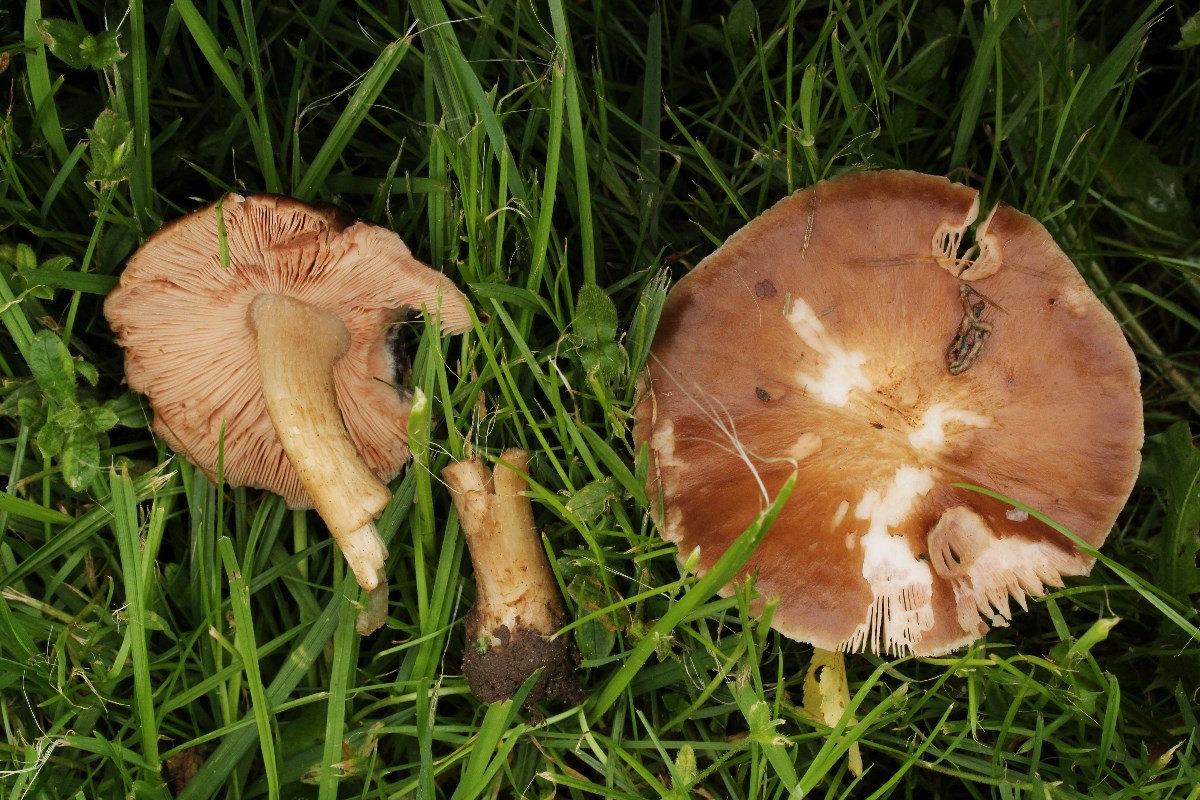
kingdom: Fungi
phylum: Basidiomycota
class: Agaricomycetes
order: Agaricales
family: Pluteaceae
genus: Pluteus
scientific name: Pluteus cervinus
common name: sodfarvet skærmhat
